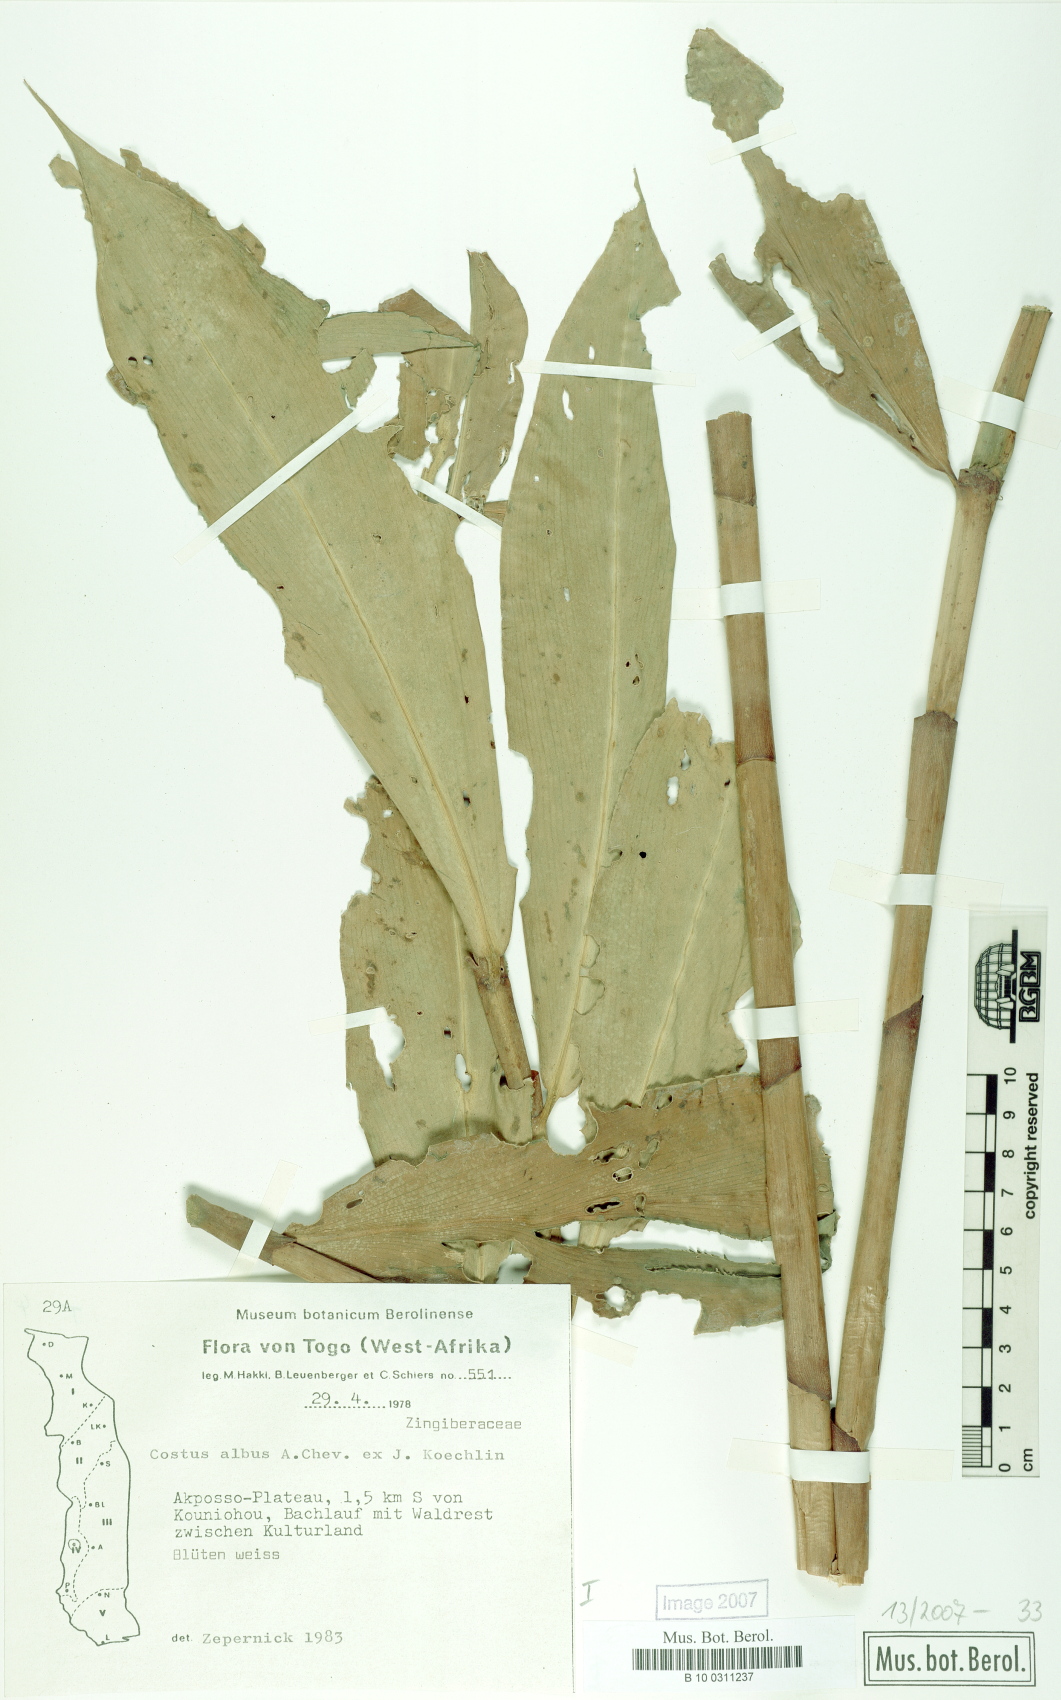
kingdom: Plantae
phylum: Tracheophyta
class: Liliopsida
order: Zingiberales
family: Costaceae
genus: Costus
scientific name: Costus dubius
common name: Costus
